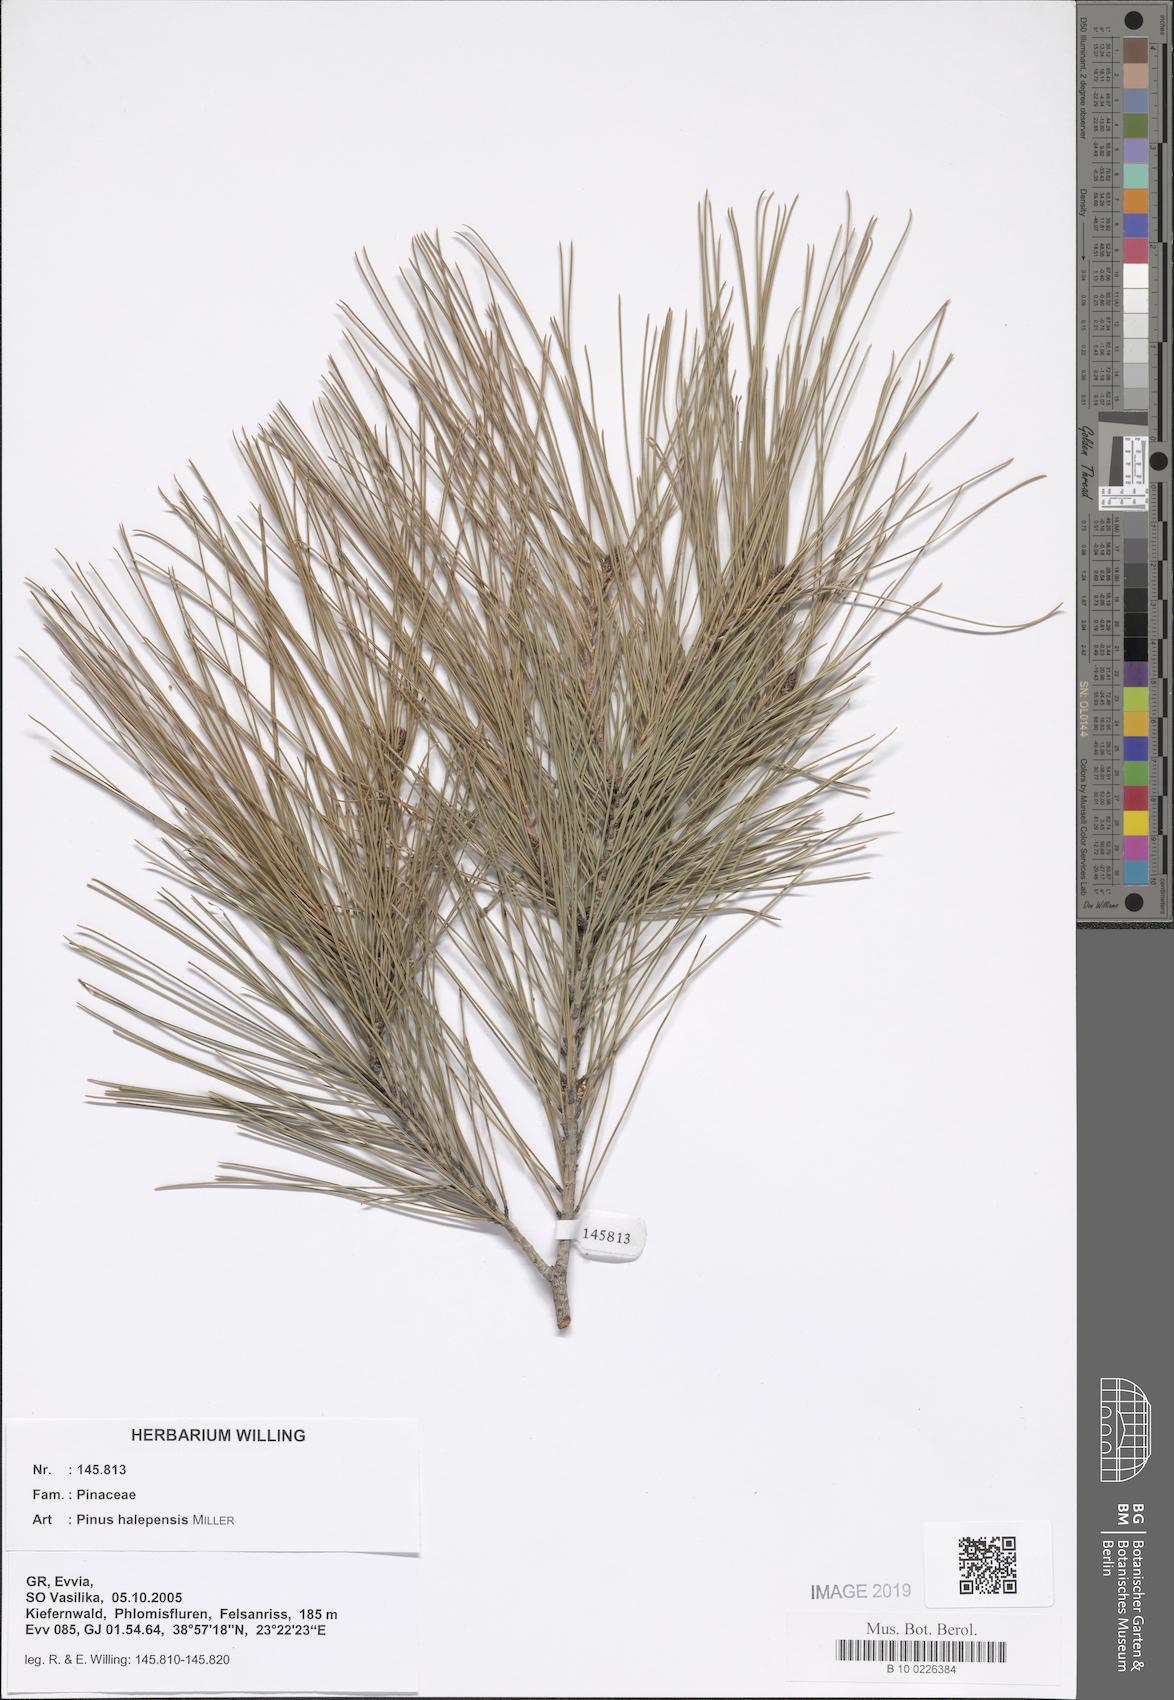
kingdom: Plantae
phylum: Tracheophyta
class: Pinopsida
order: Pinales
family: Pinaceae
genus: Pinus
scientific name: Pinus halepensis
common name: Aleppo pine
